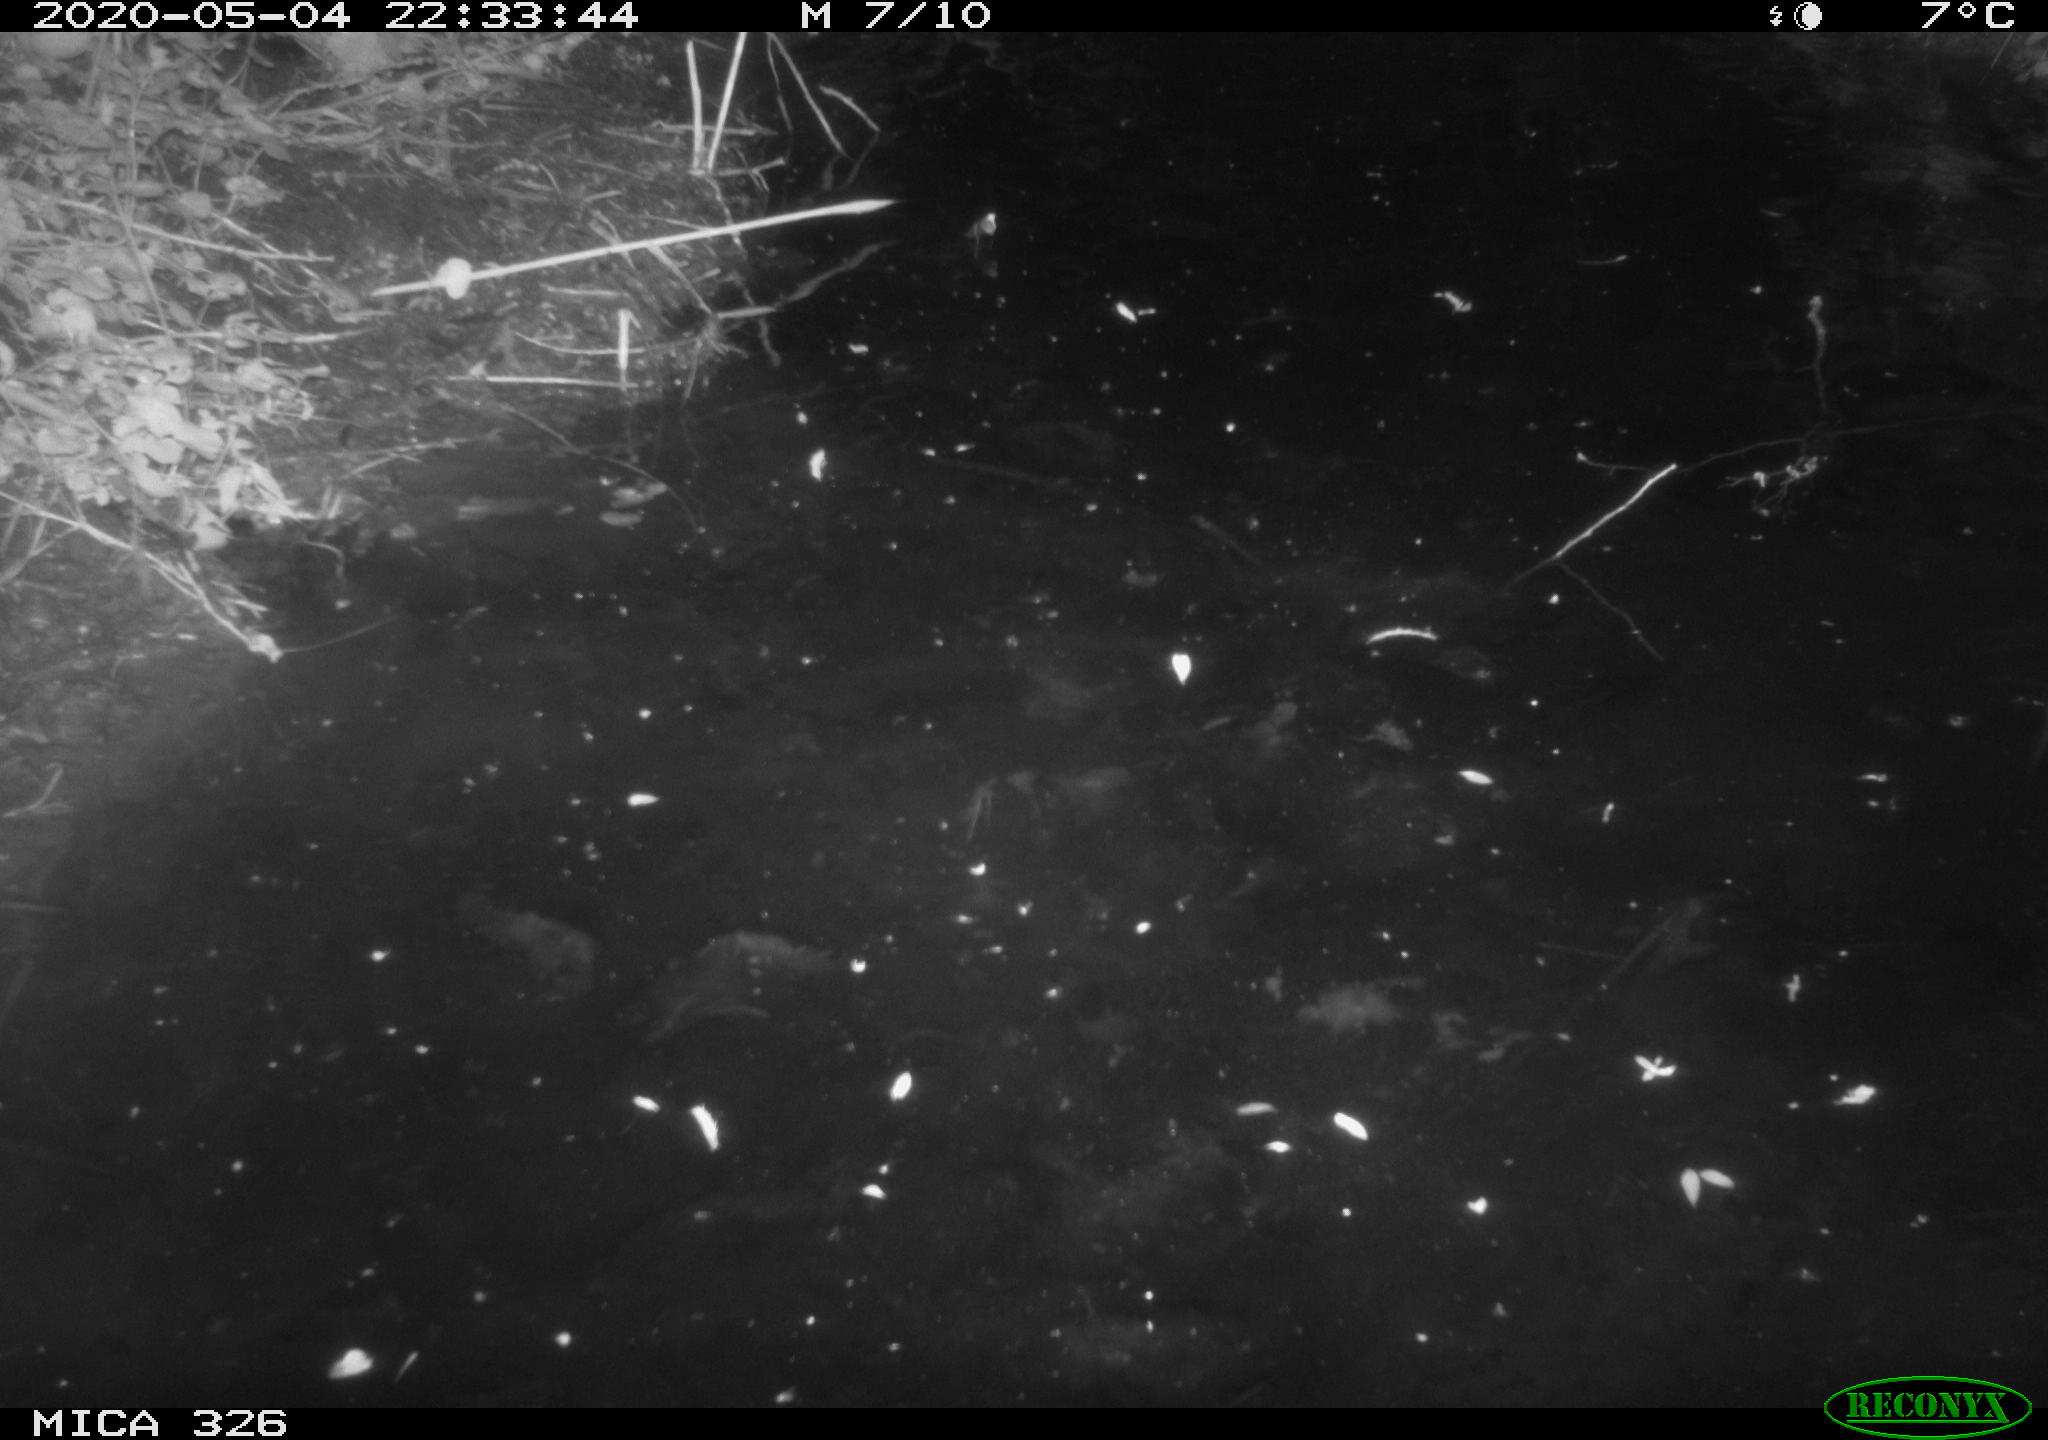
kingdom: Animalia
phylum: Chordata
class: Mammalia
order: Rodentia
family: Myocastoridae
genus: Myocastor
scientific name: Myocastor coypus
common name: Coypu
